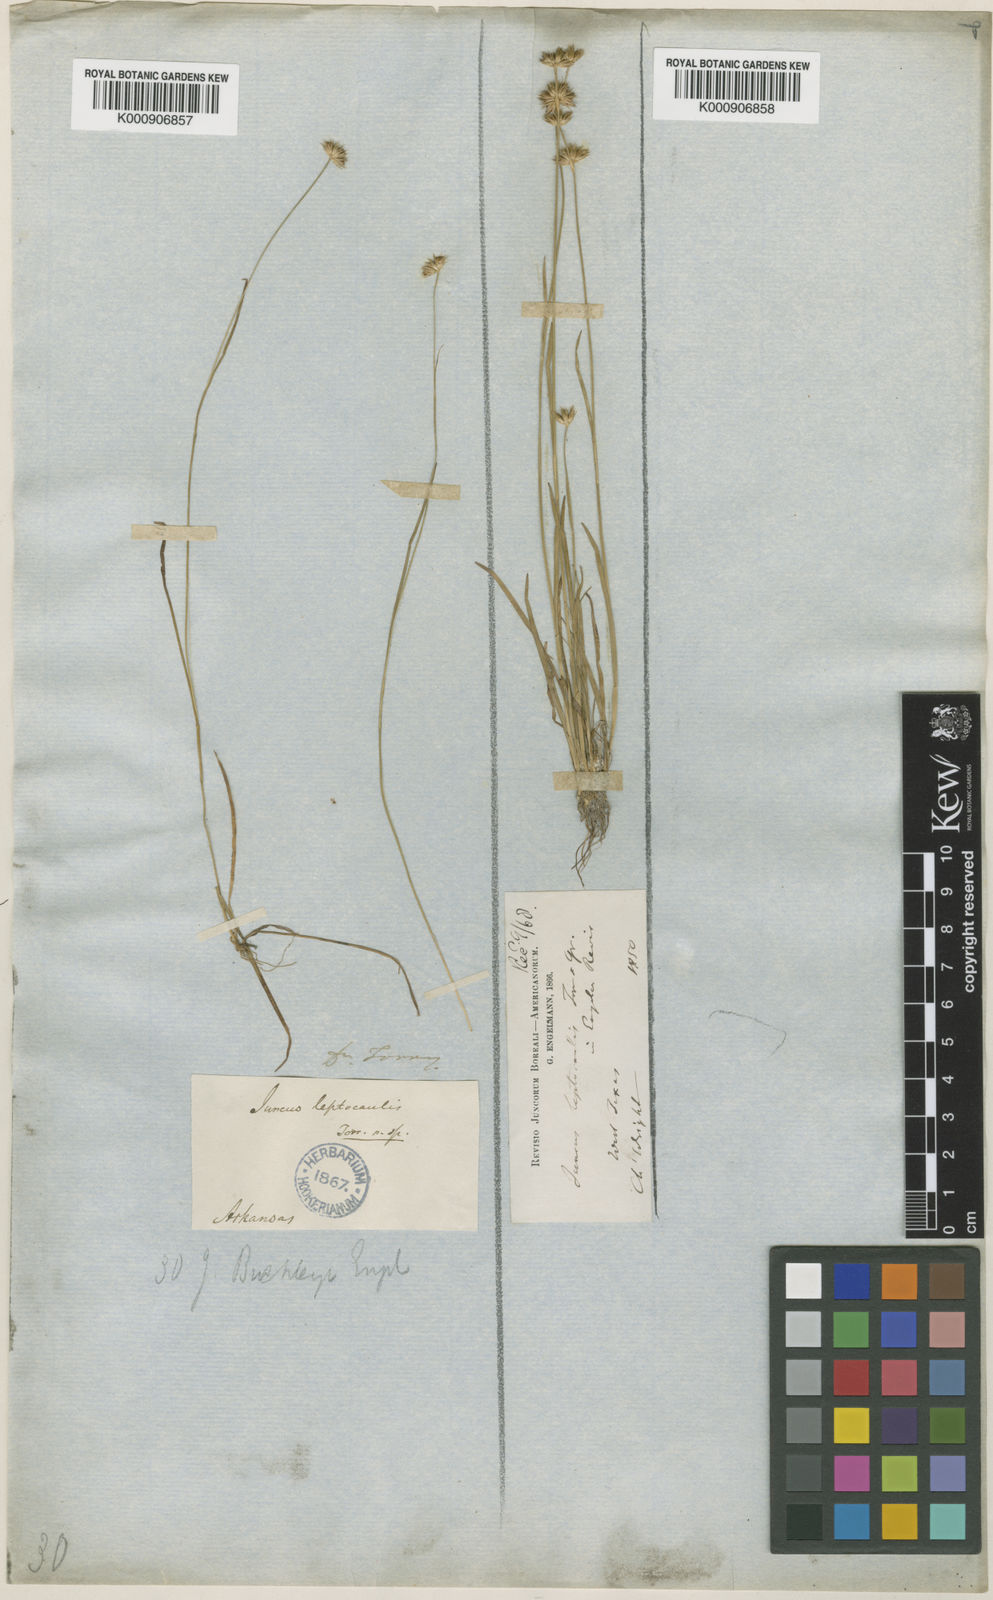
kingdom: Plantae
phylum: Tracheophyta
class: Liliopsida
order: Poales
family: Juncaceae
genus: Juncus
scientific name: Juncus filipendulus
